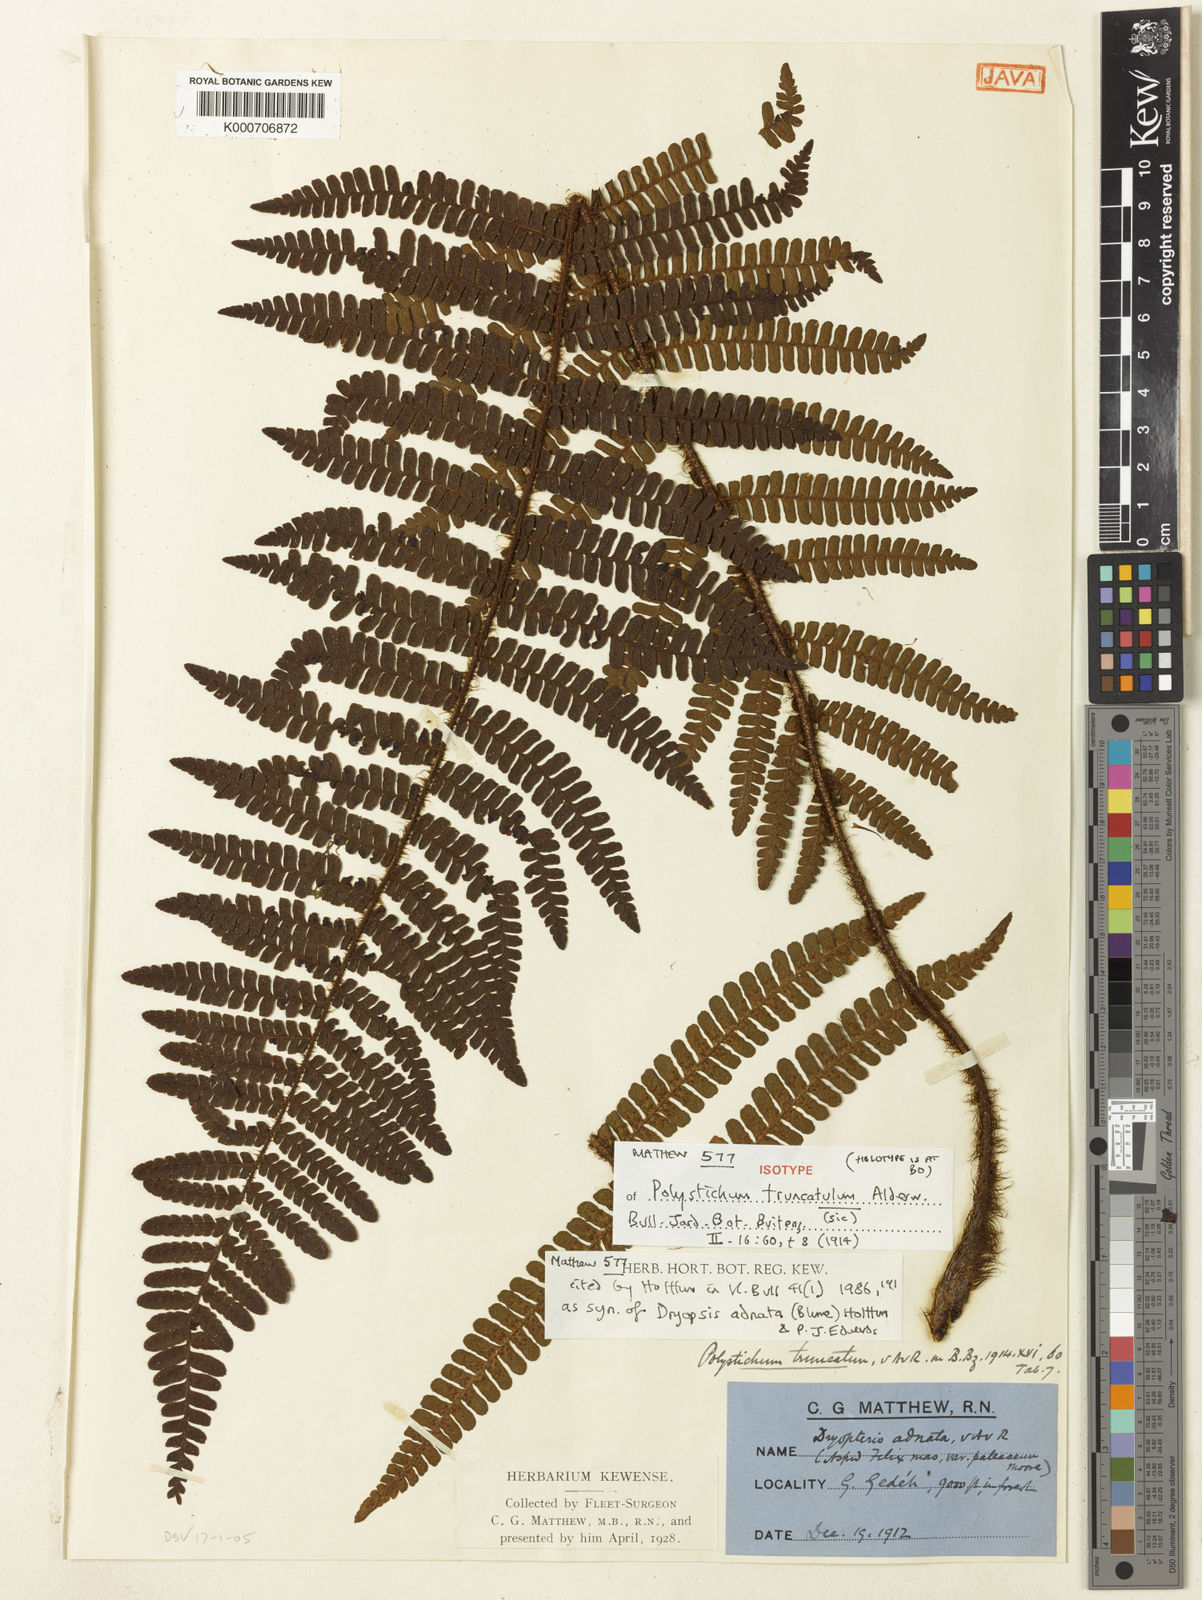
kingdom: Plantae
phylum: Tracheophyta
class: Polypodiopsida
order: Polypodiales
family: Dryopteridaceae
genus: Dryopteris
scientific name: Dryopteris adnata
